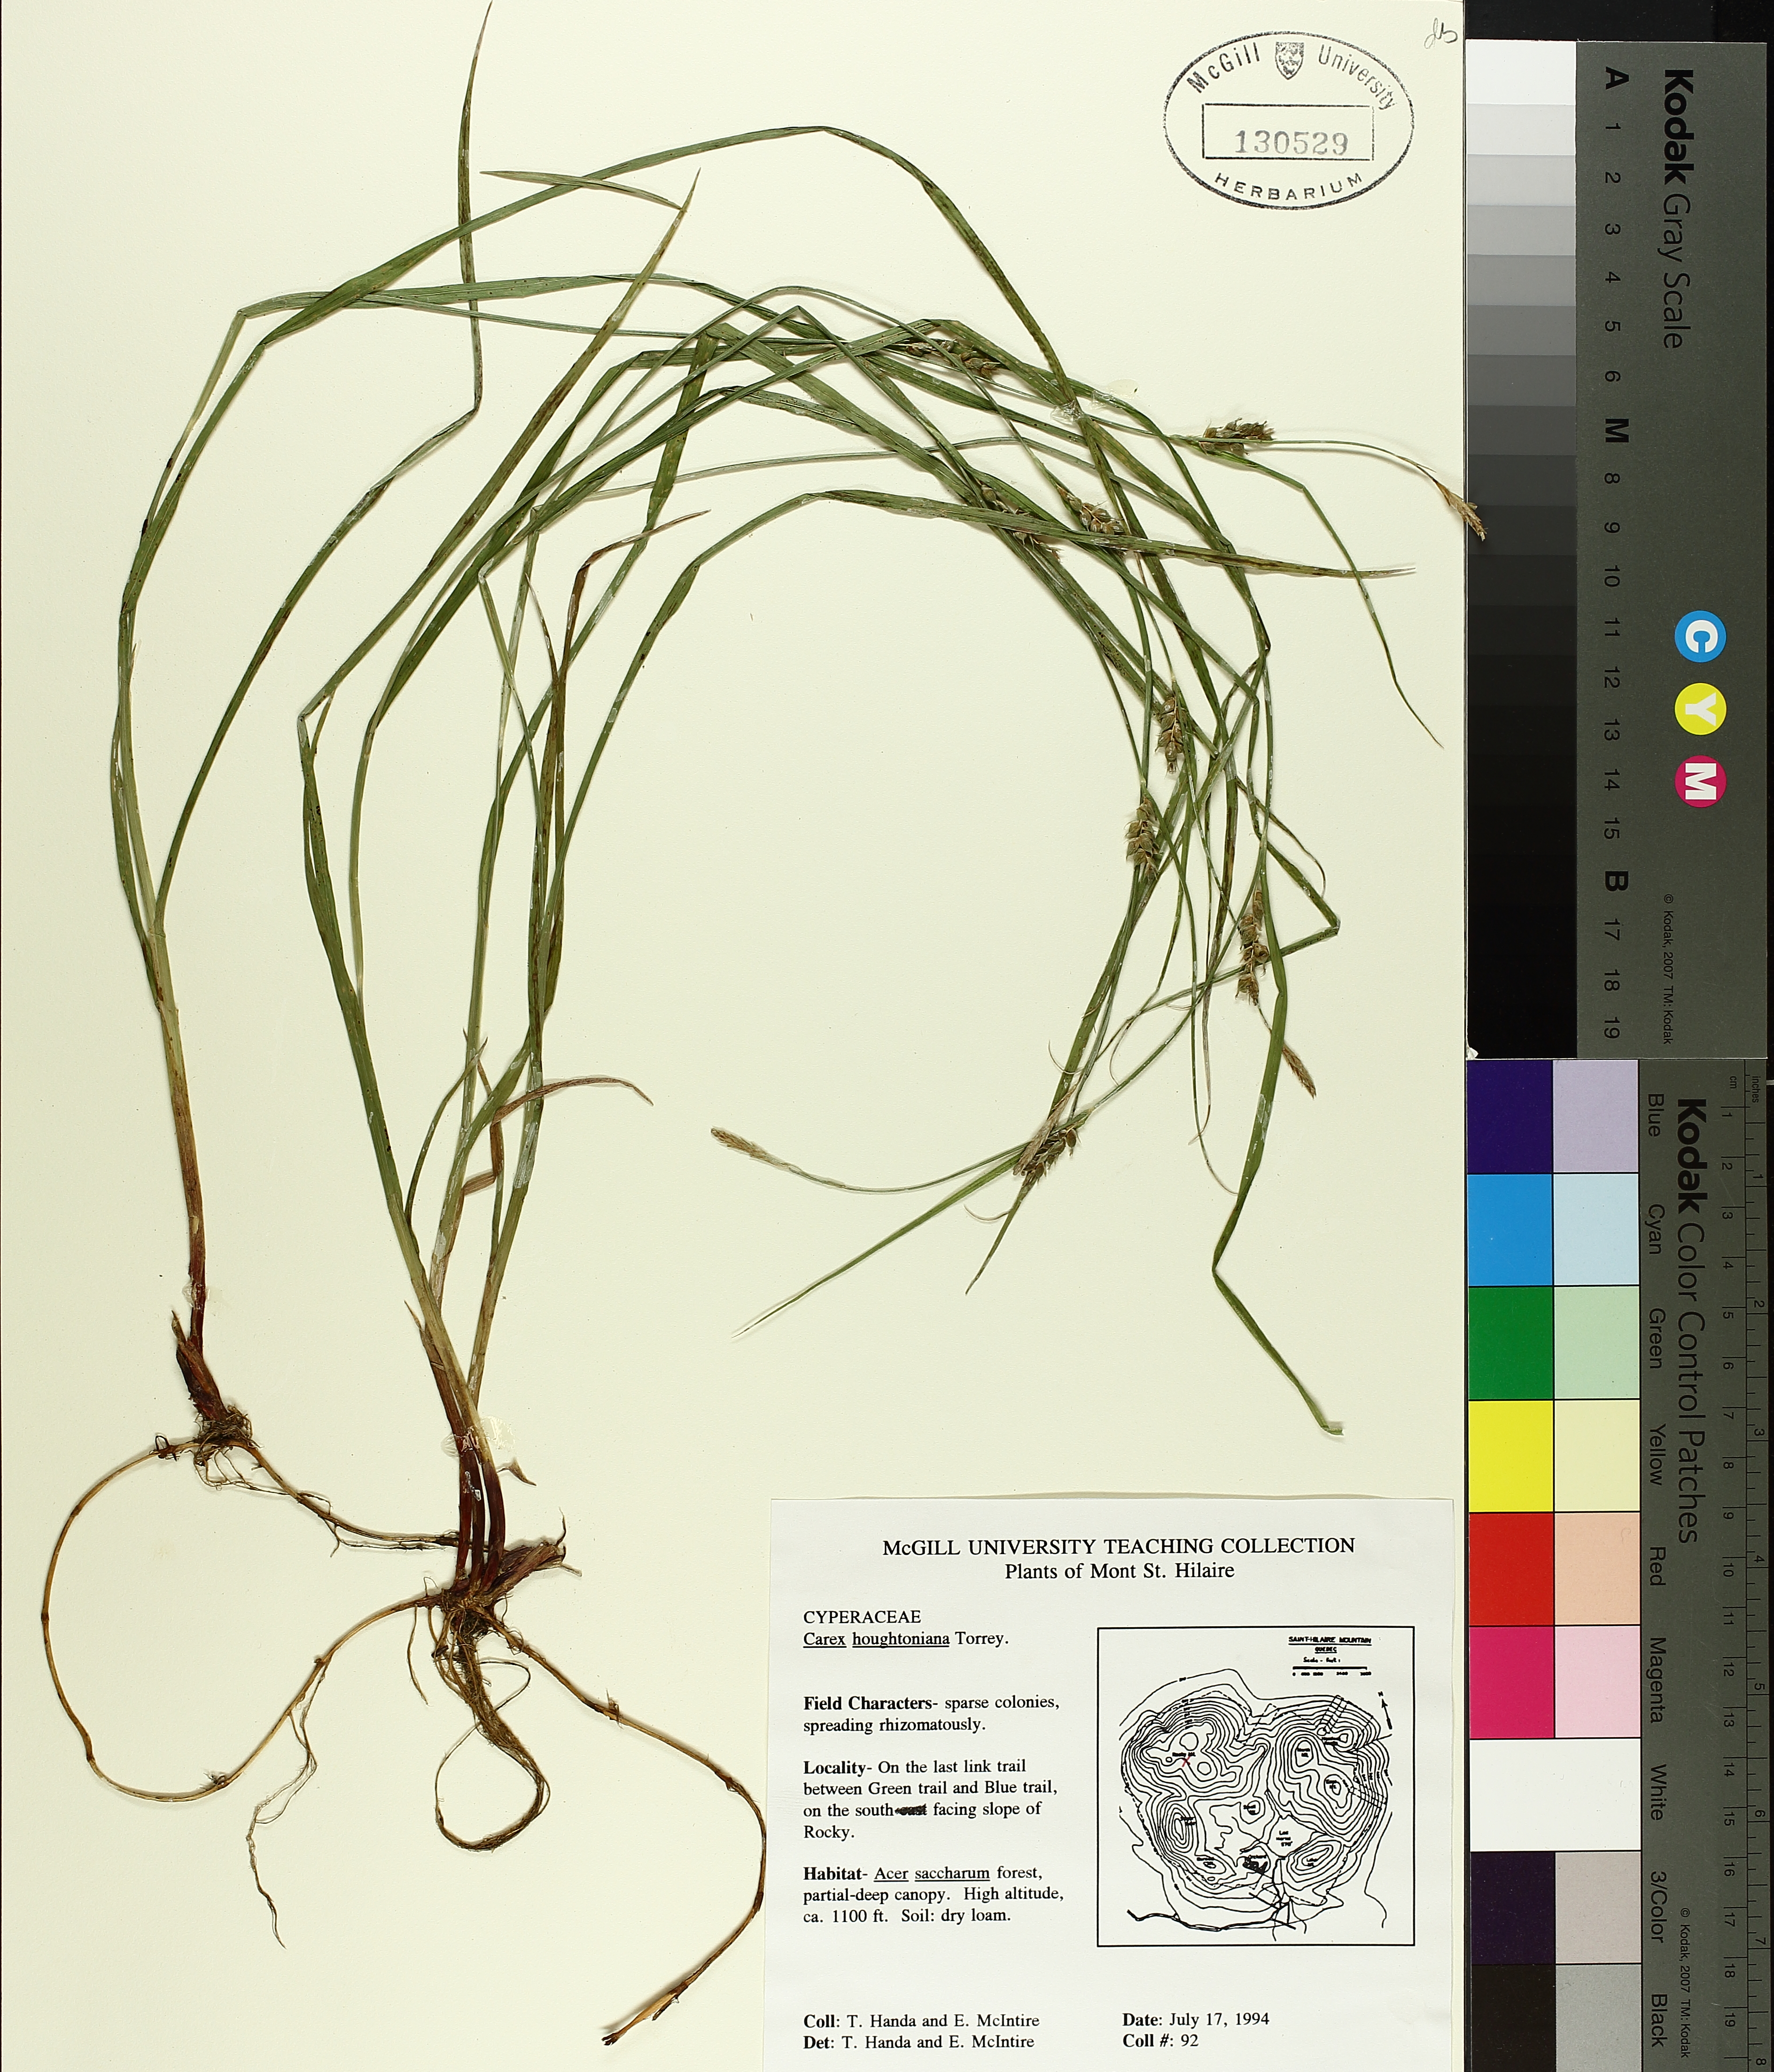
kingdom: Plantae
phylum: Tracheophyta
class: Liliopsida
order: Poales
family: Cyperaceae
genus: Carex
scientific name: Carex houghtoniana
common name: Houghton's sedge
